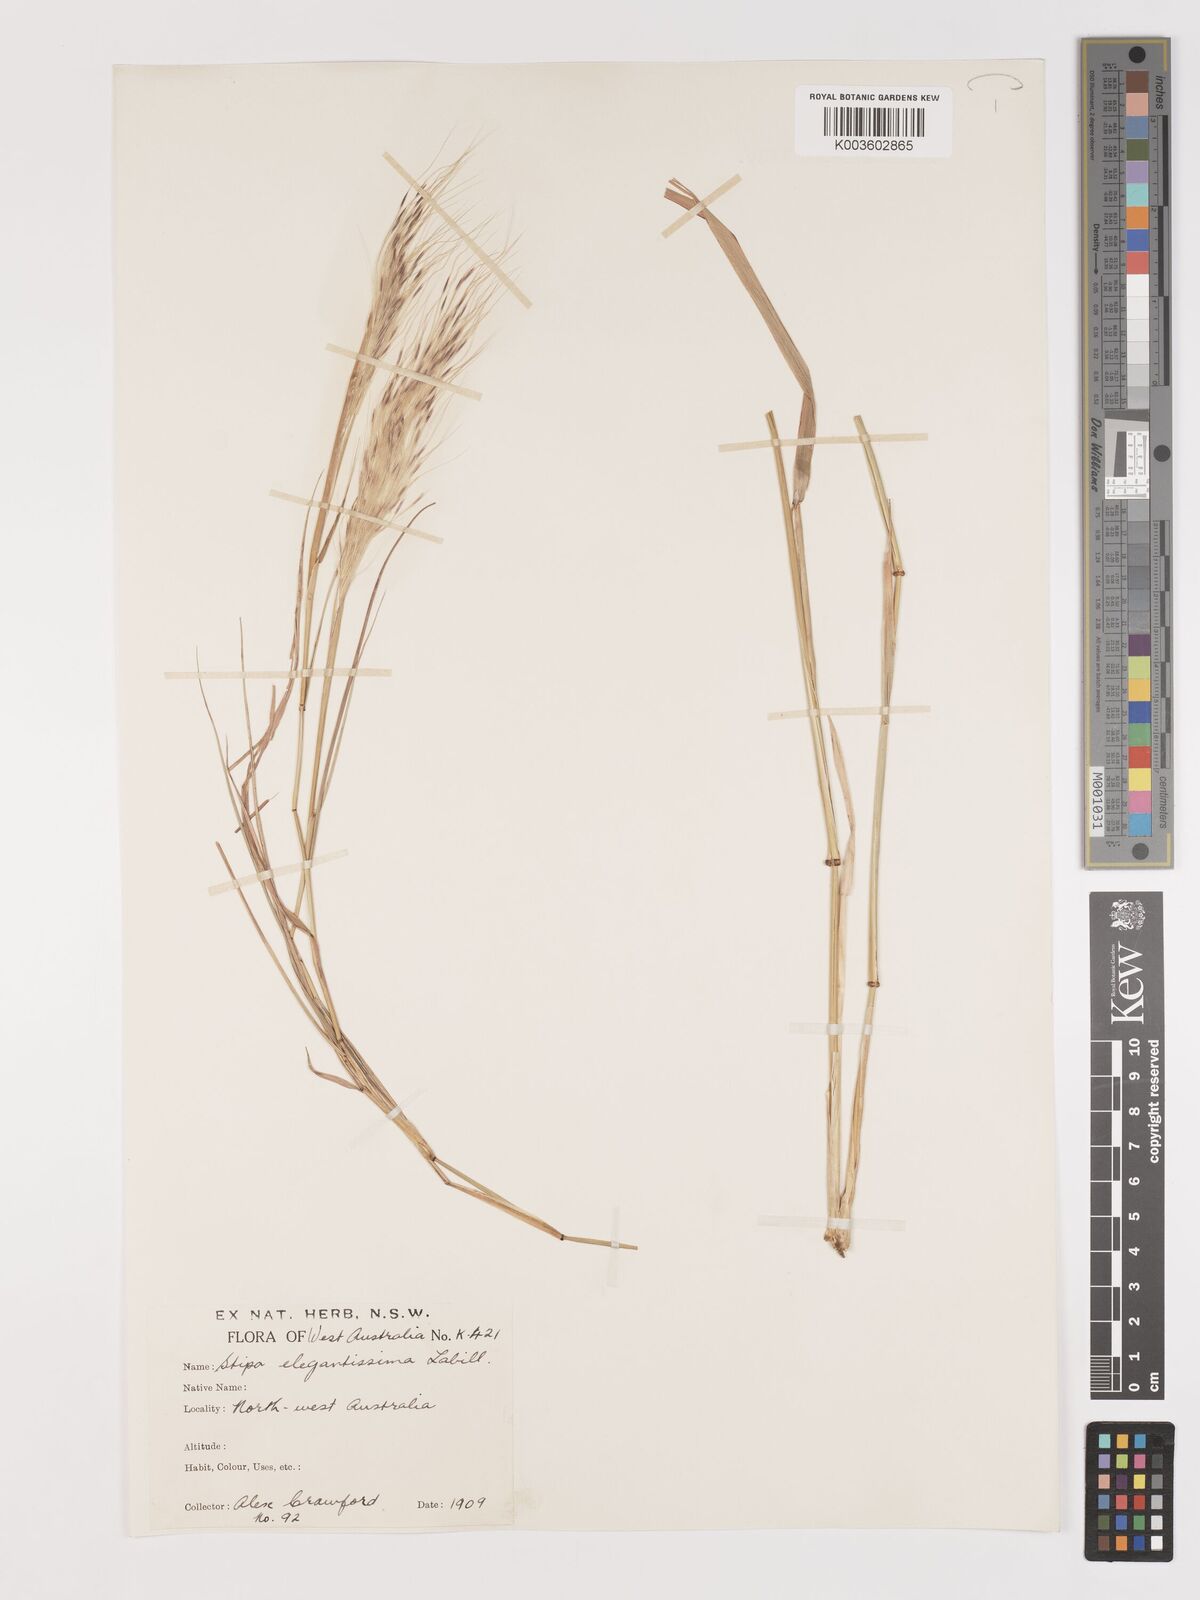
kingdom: Plantae
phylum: Tracheophyta
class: Liliopsida
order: Poales
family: Poaceae
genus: Austrostipa
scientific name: Austrostipa elegantissima
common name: Feather spear grass
